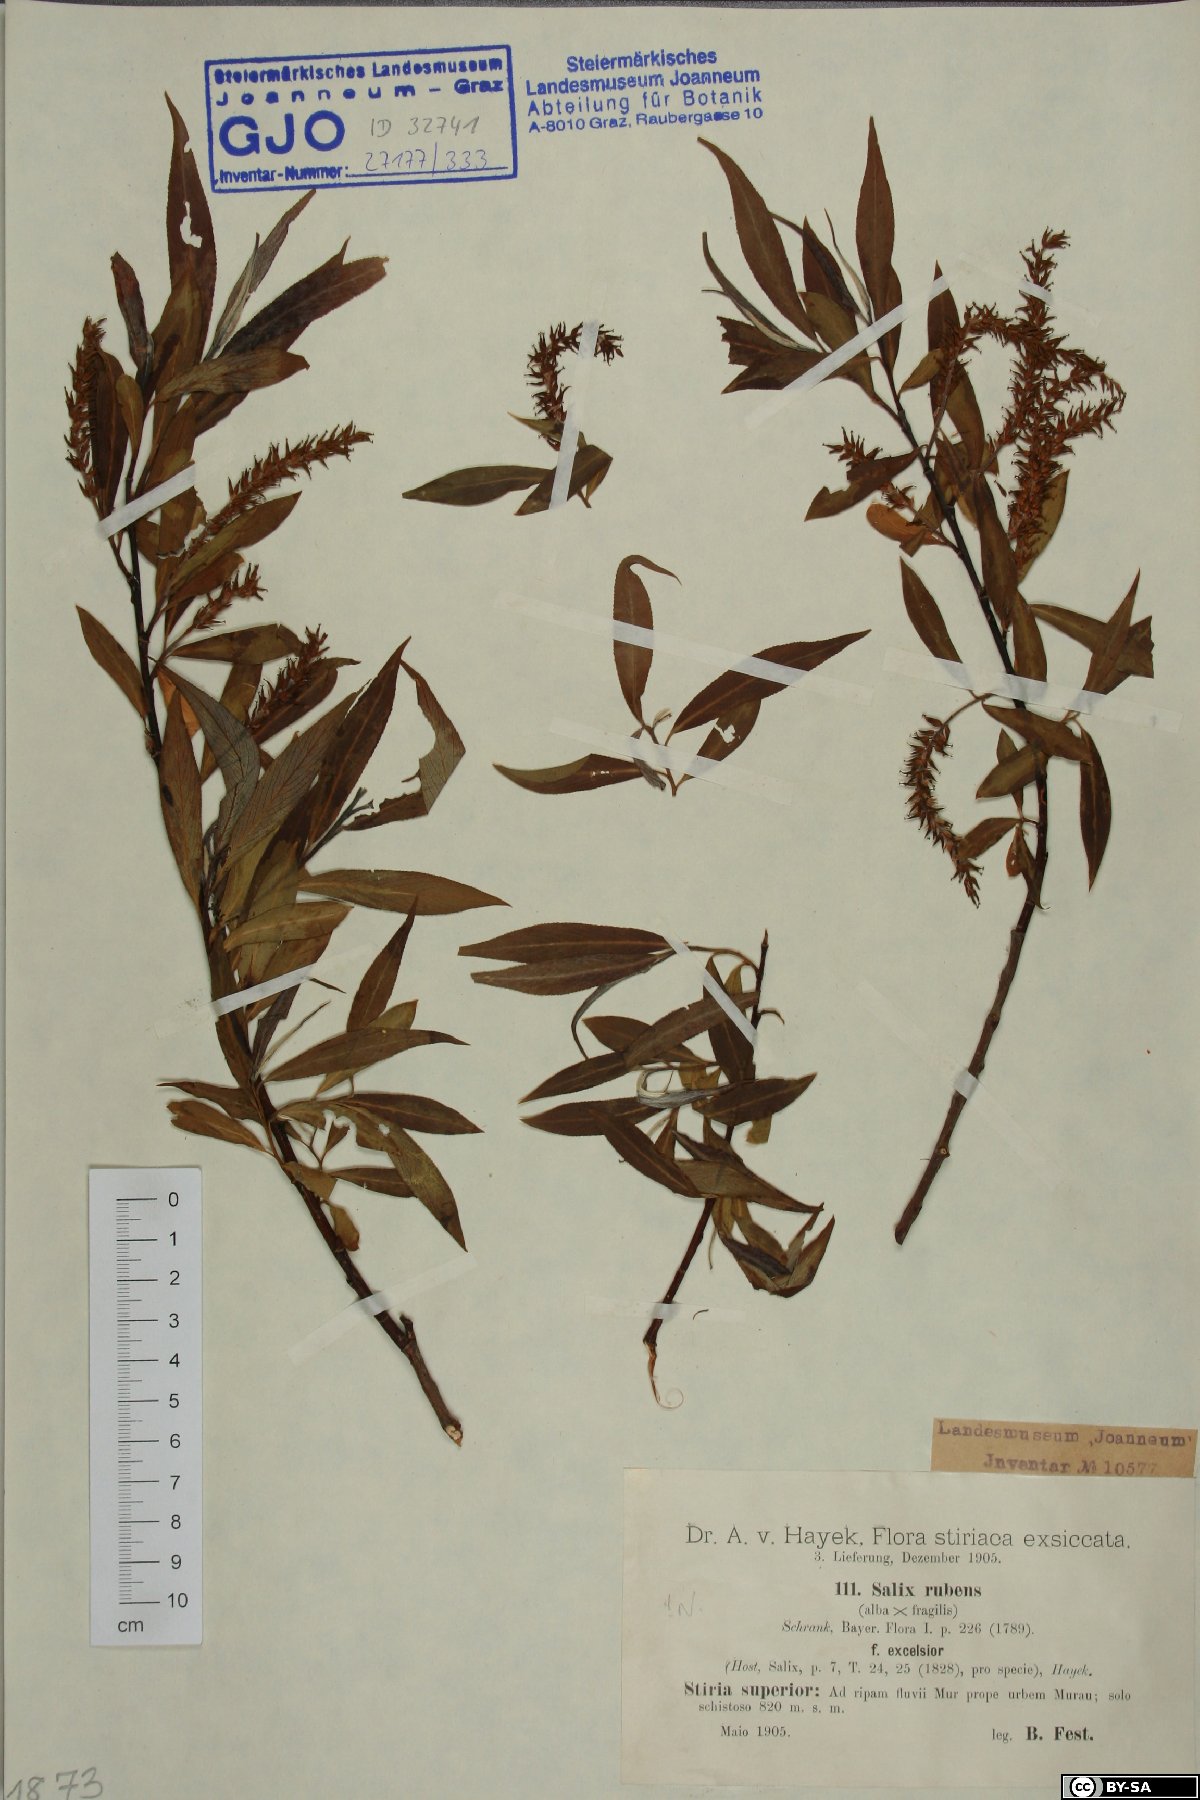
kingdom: Plantae
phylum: Tracheophyta
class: Magnoliopsida
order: Malpighiales
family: Salicaceae
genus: Salix
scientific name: Salix rubens
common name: Hybrid crack willow
